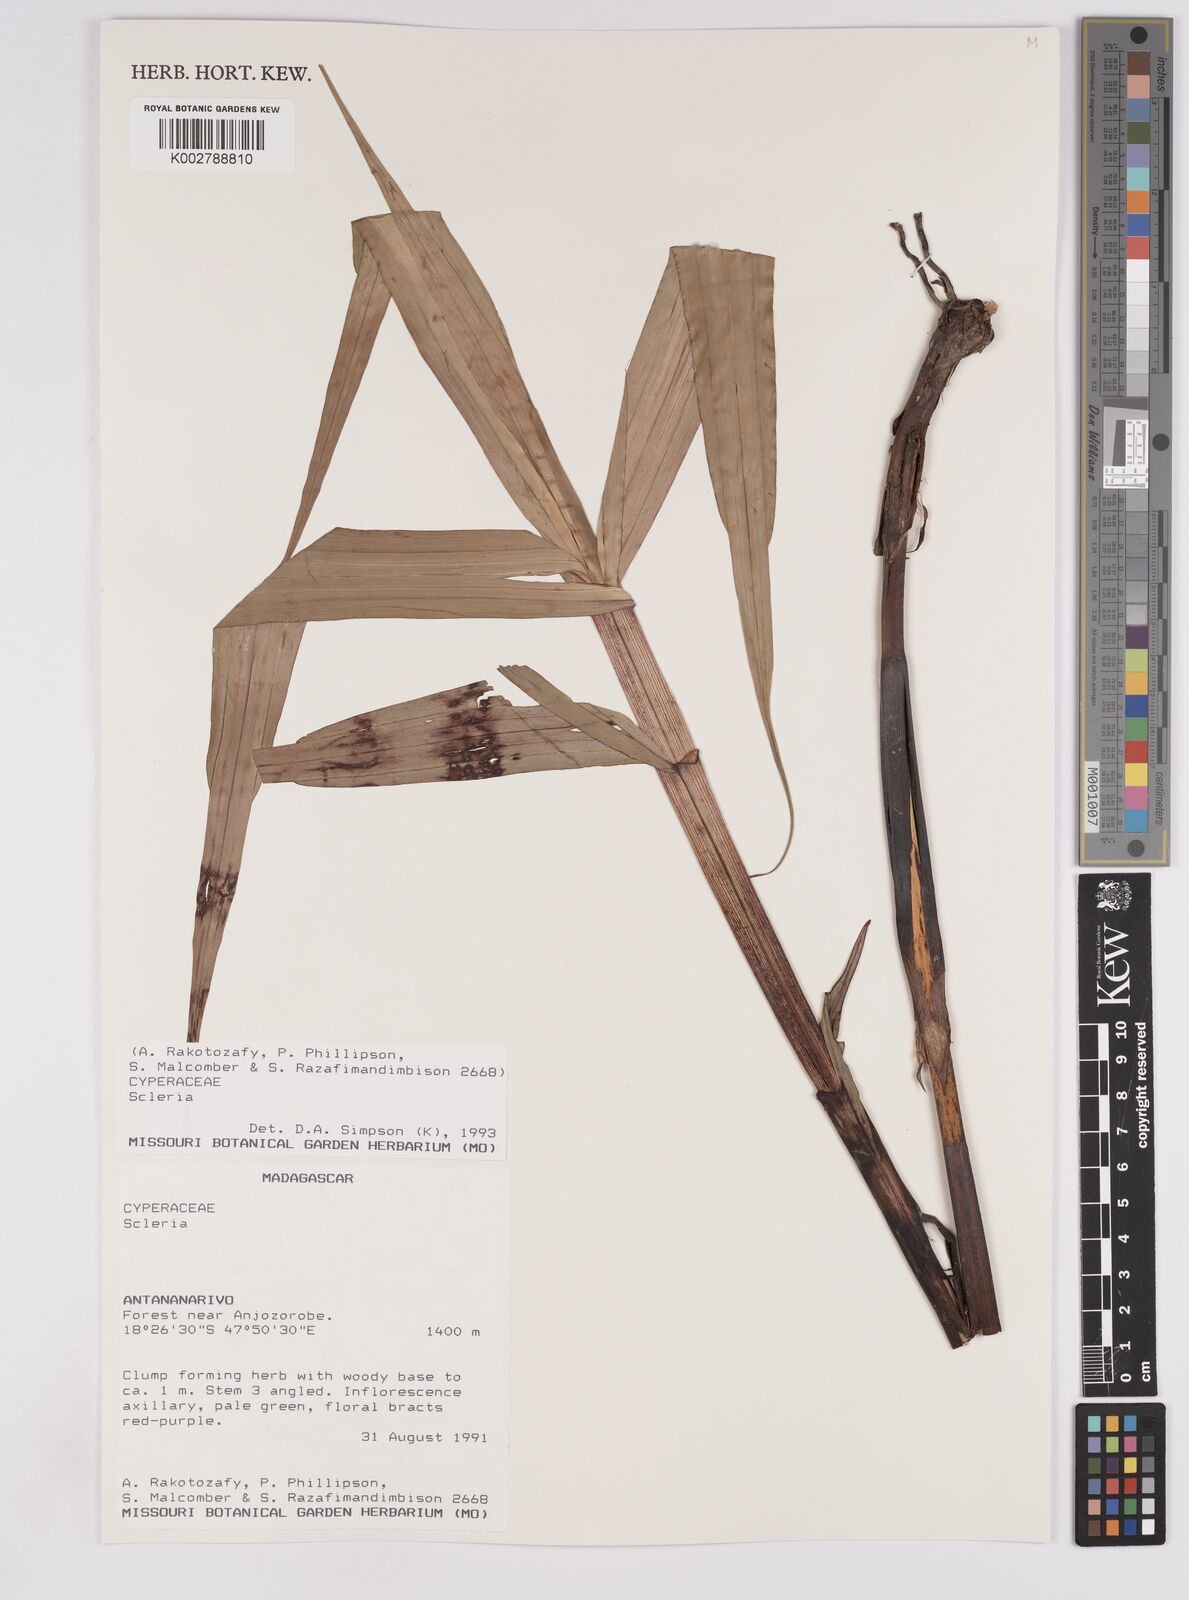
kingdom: Plantae
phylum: Tracheophyta
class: Liliopsida
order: Poales
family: Cyperaceae
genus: Scleria
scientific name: Scleria
